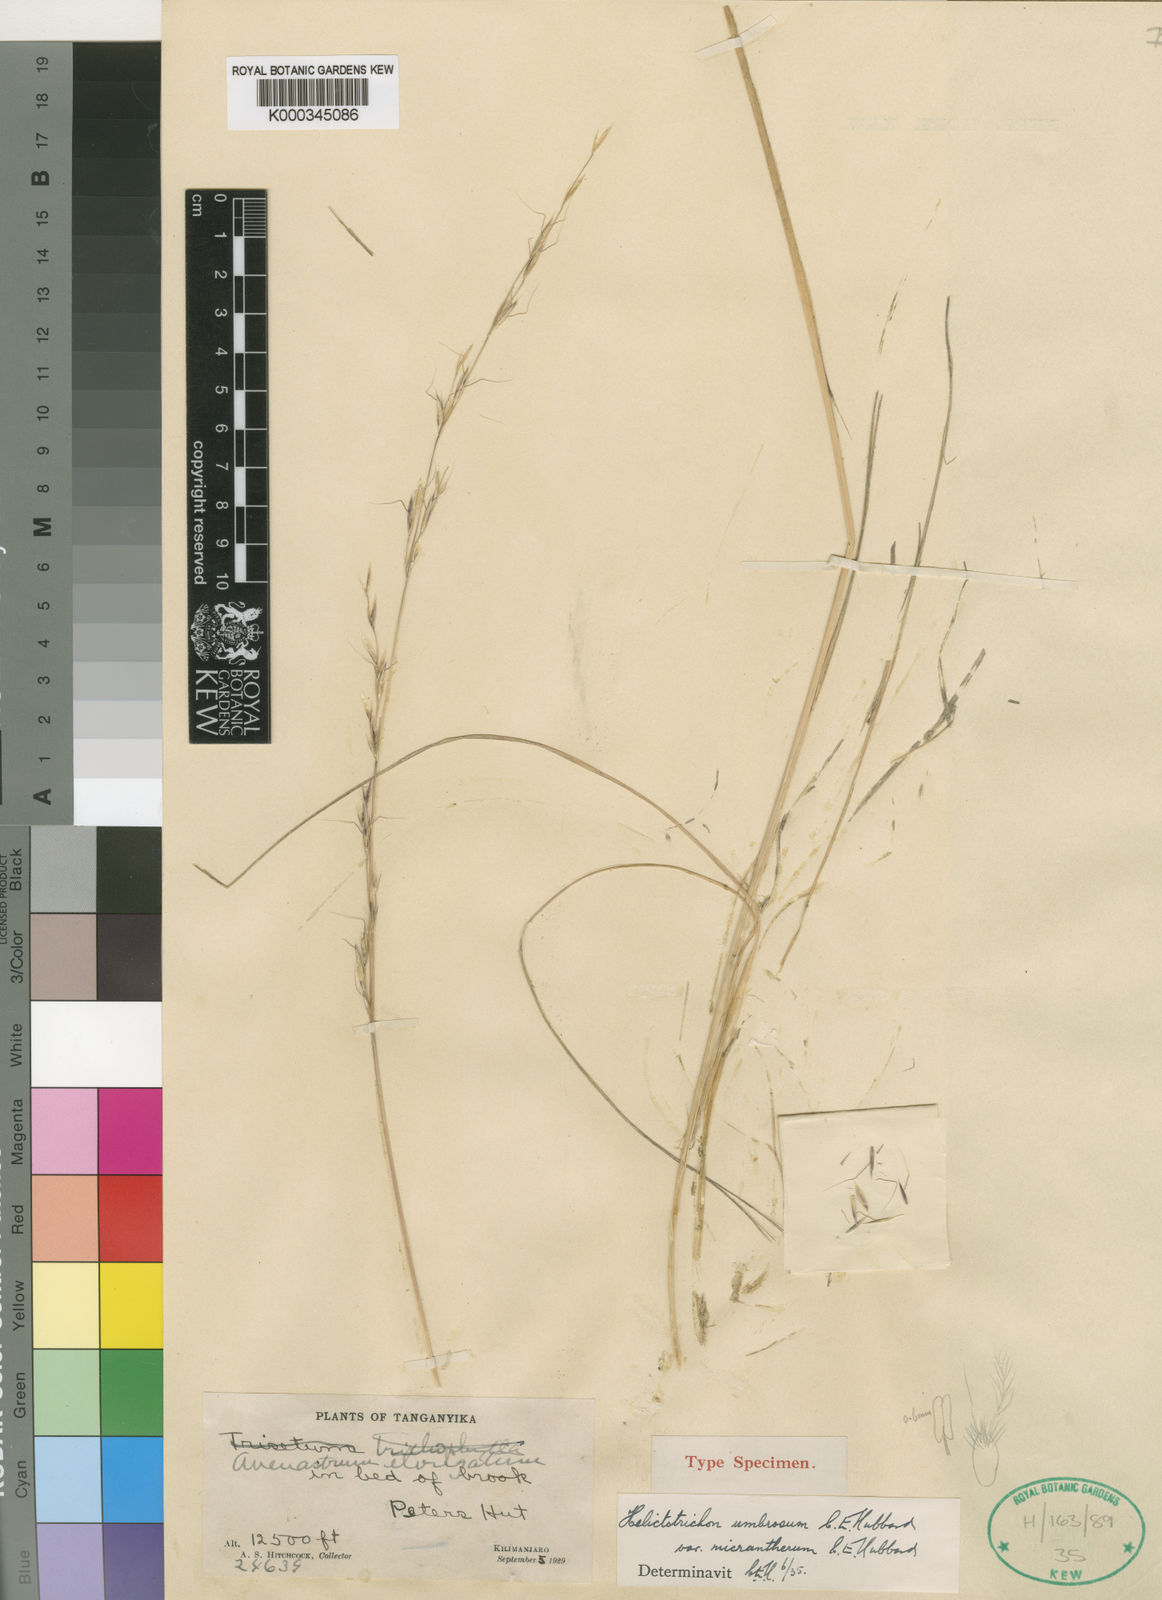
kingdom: Plantae
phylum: Tracheophyta
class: Liliopsida
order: Poales
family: Poaceae
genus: Trisetopsis
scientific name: Trisetopsis umbrosa
